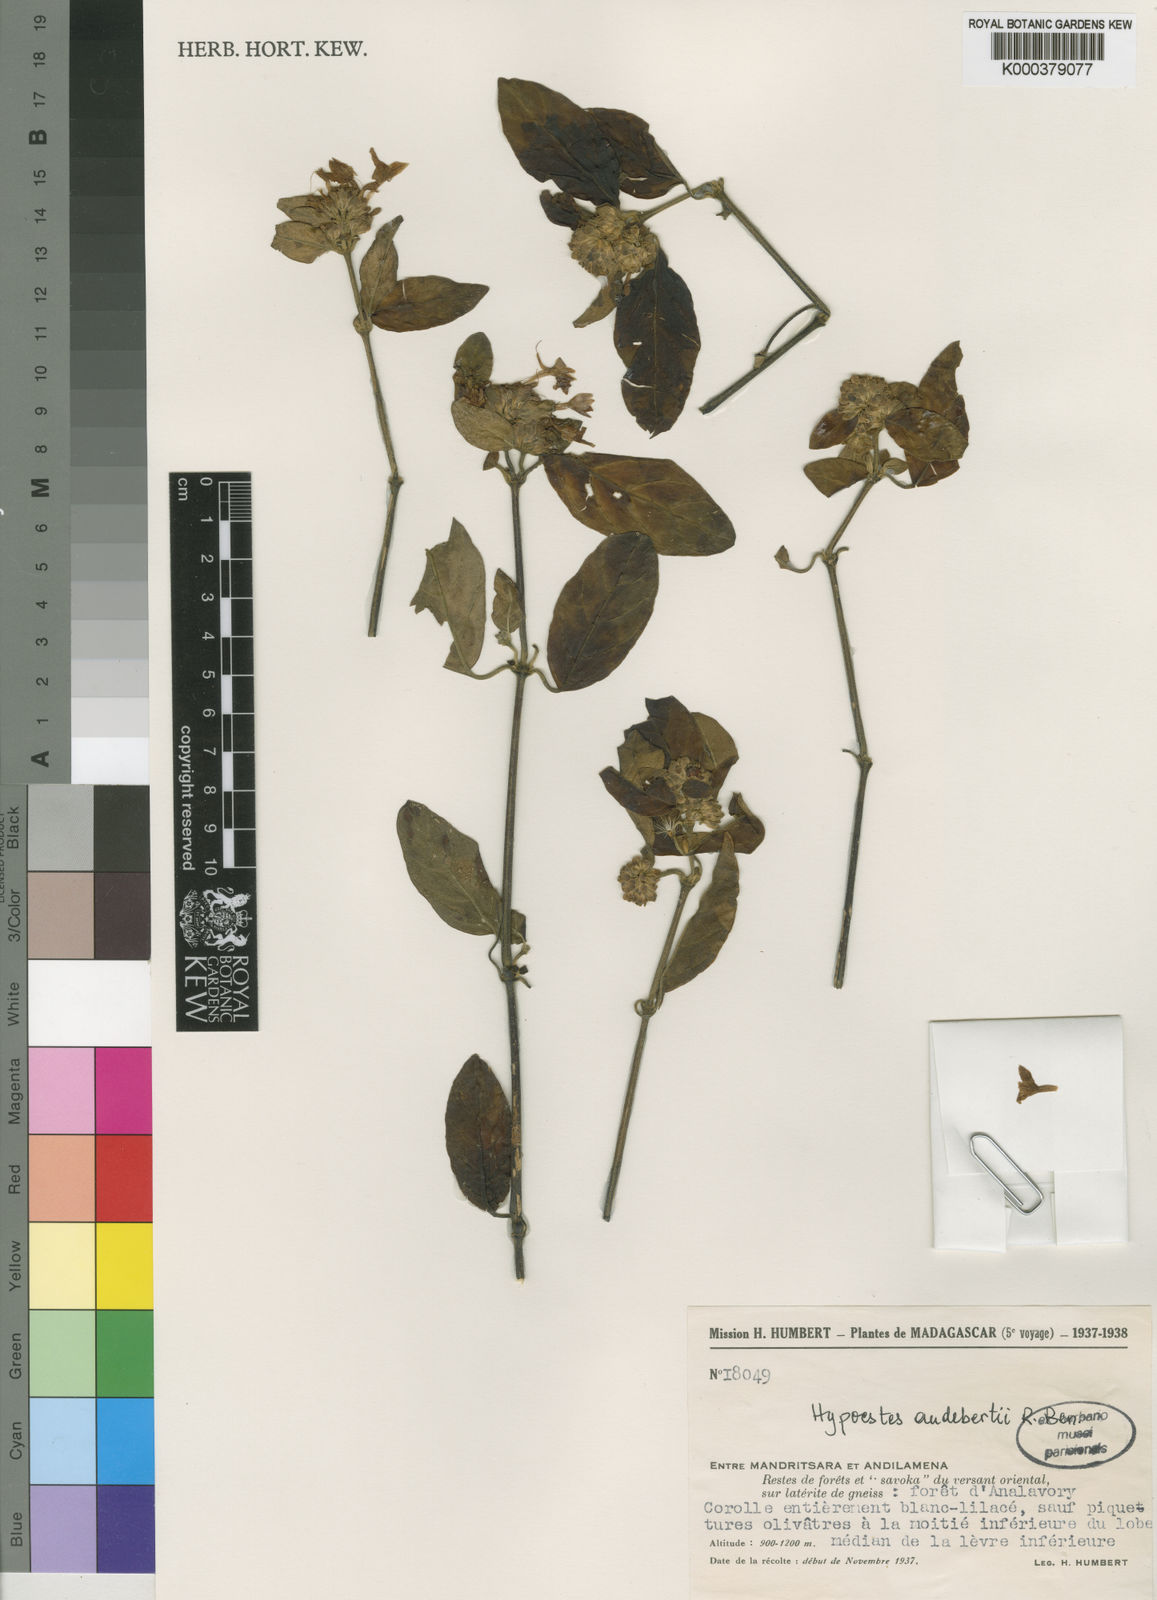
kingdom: Plantae
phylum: Tracheophyta
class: Magnoliopsida
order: Lamiales
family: Acanthaceae
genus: Hypoestes
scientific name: Hypoestes
